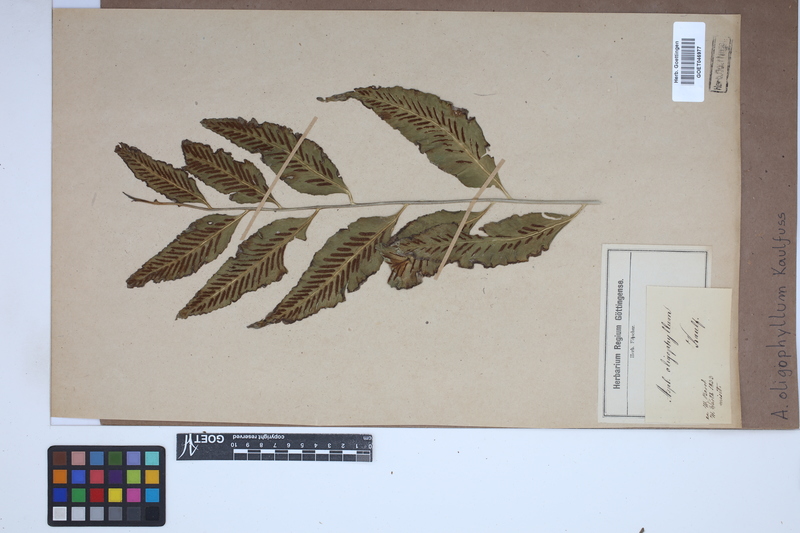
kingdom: Plantae
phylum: Tracheophyta
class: Polypodiopsida
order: Polypodiales
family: Aspleniaceae
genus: Asplenium
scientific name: Asplenium oligophyllum
